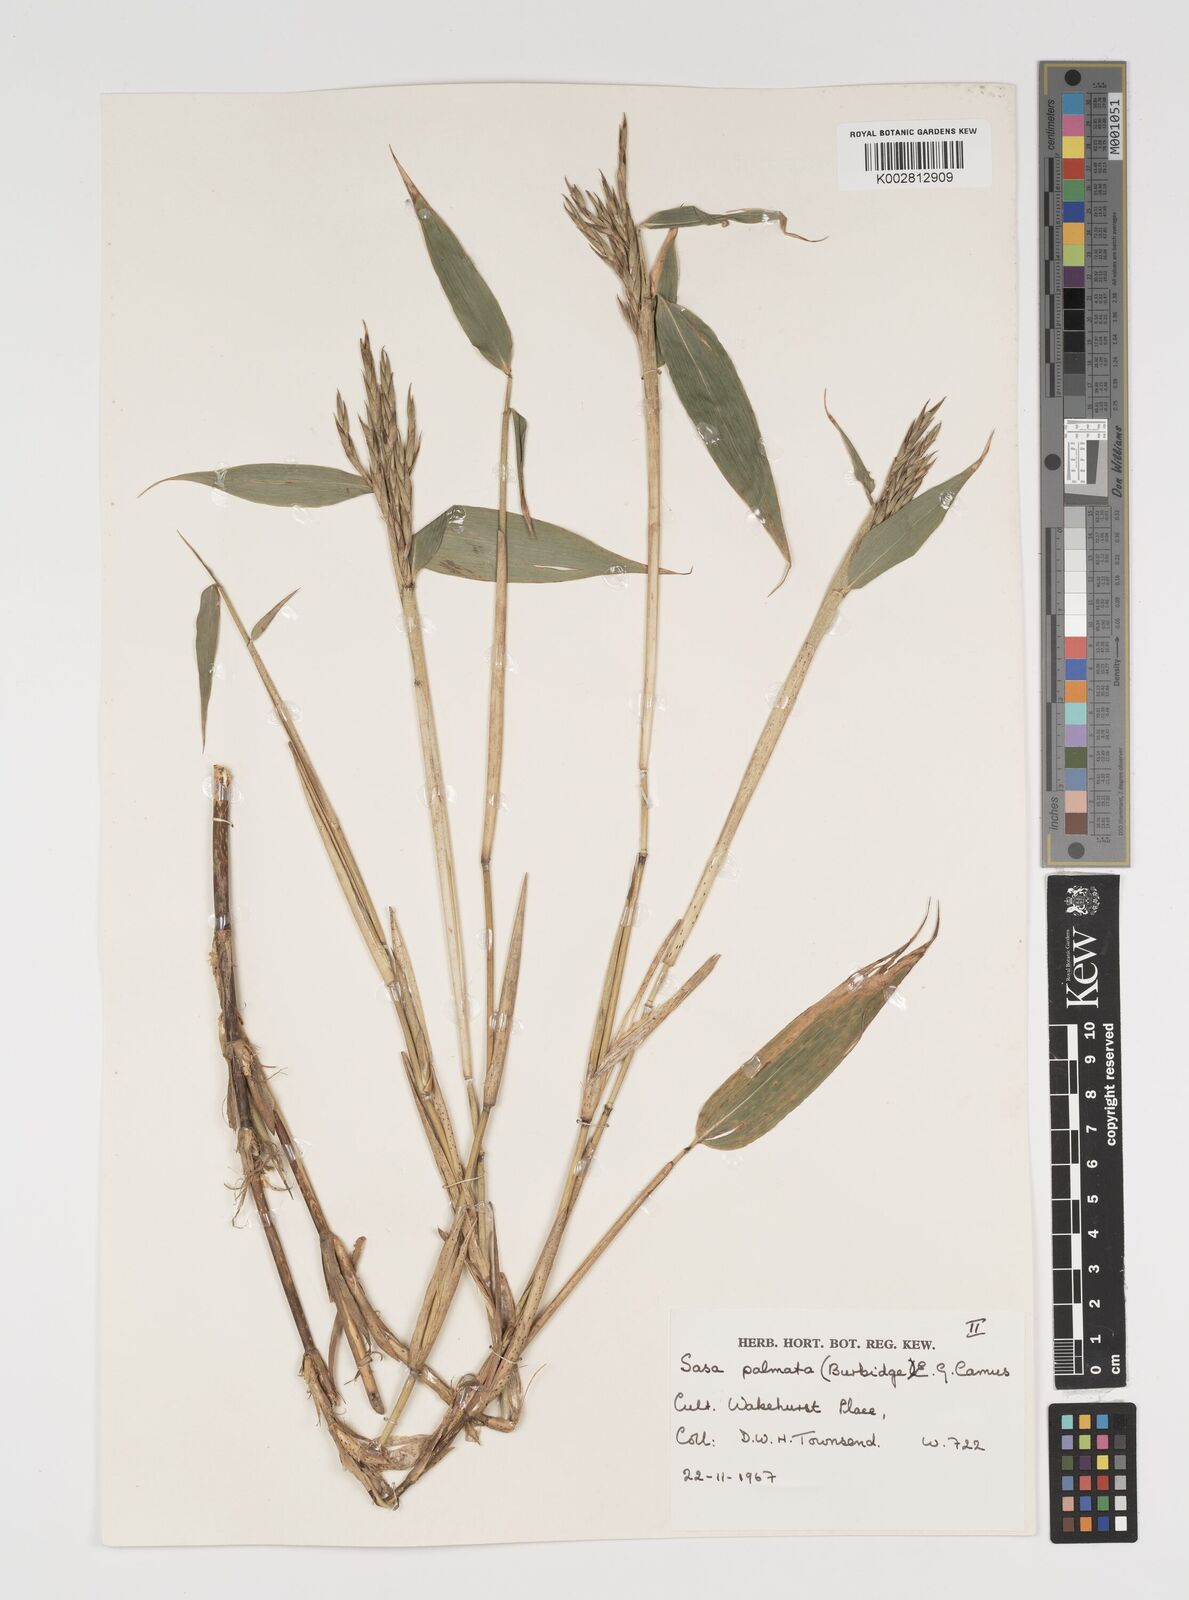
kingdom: Plantae
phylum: Tracheophyta
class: Liliopsida
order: Poales
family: Poaceae
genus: Sasa
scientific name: Sasa palmata
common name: Broad-leaved bamboo
